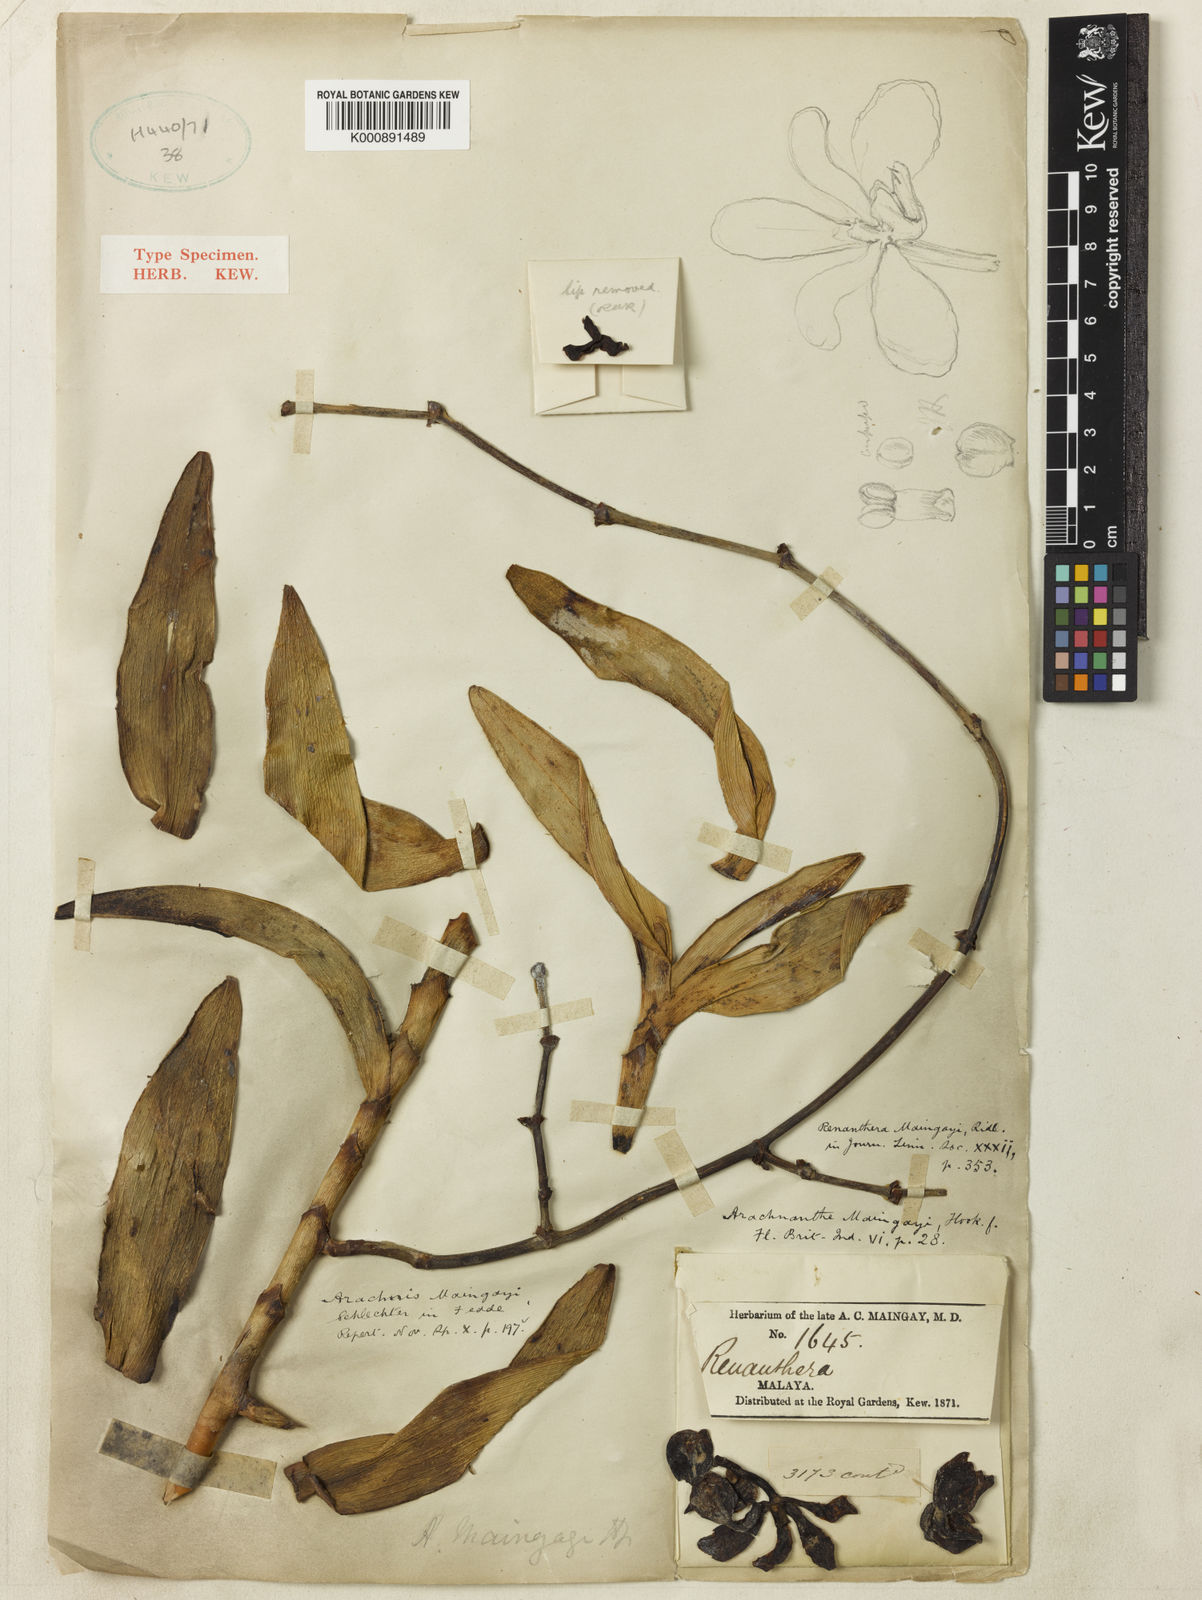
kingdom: Plantae
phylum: Tracheophyta
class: Liliopsida
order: Asparagales
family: Orchidaceae
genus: Arachnis
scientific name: Arachnis maingayi
